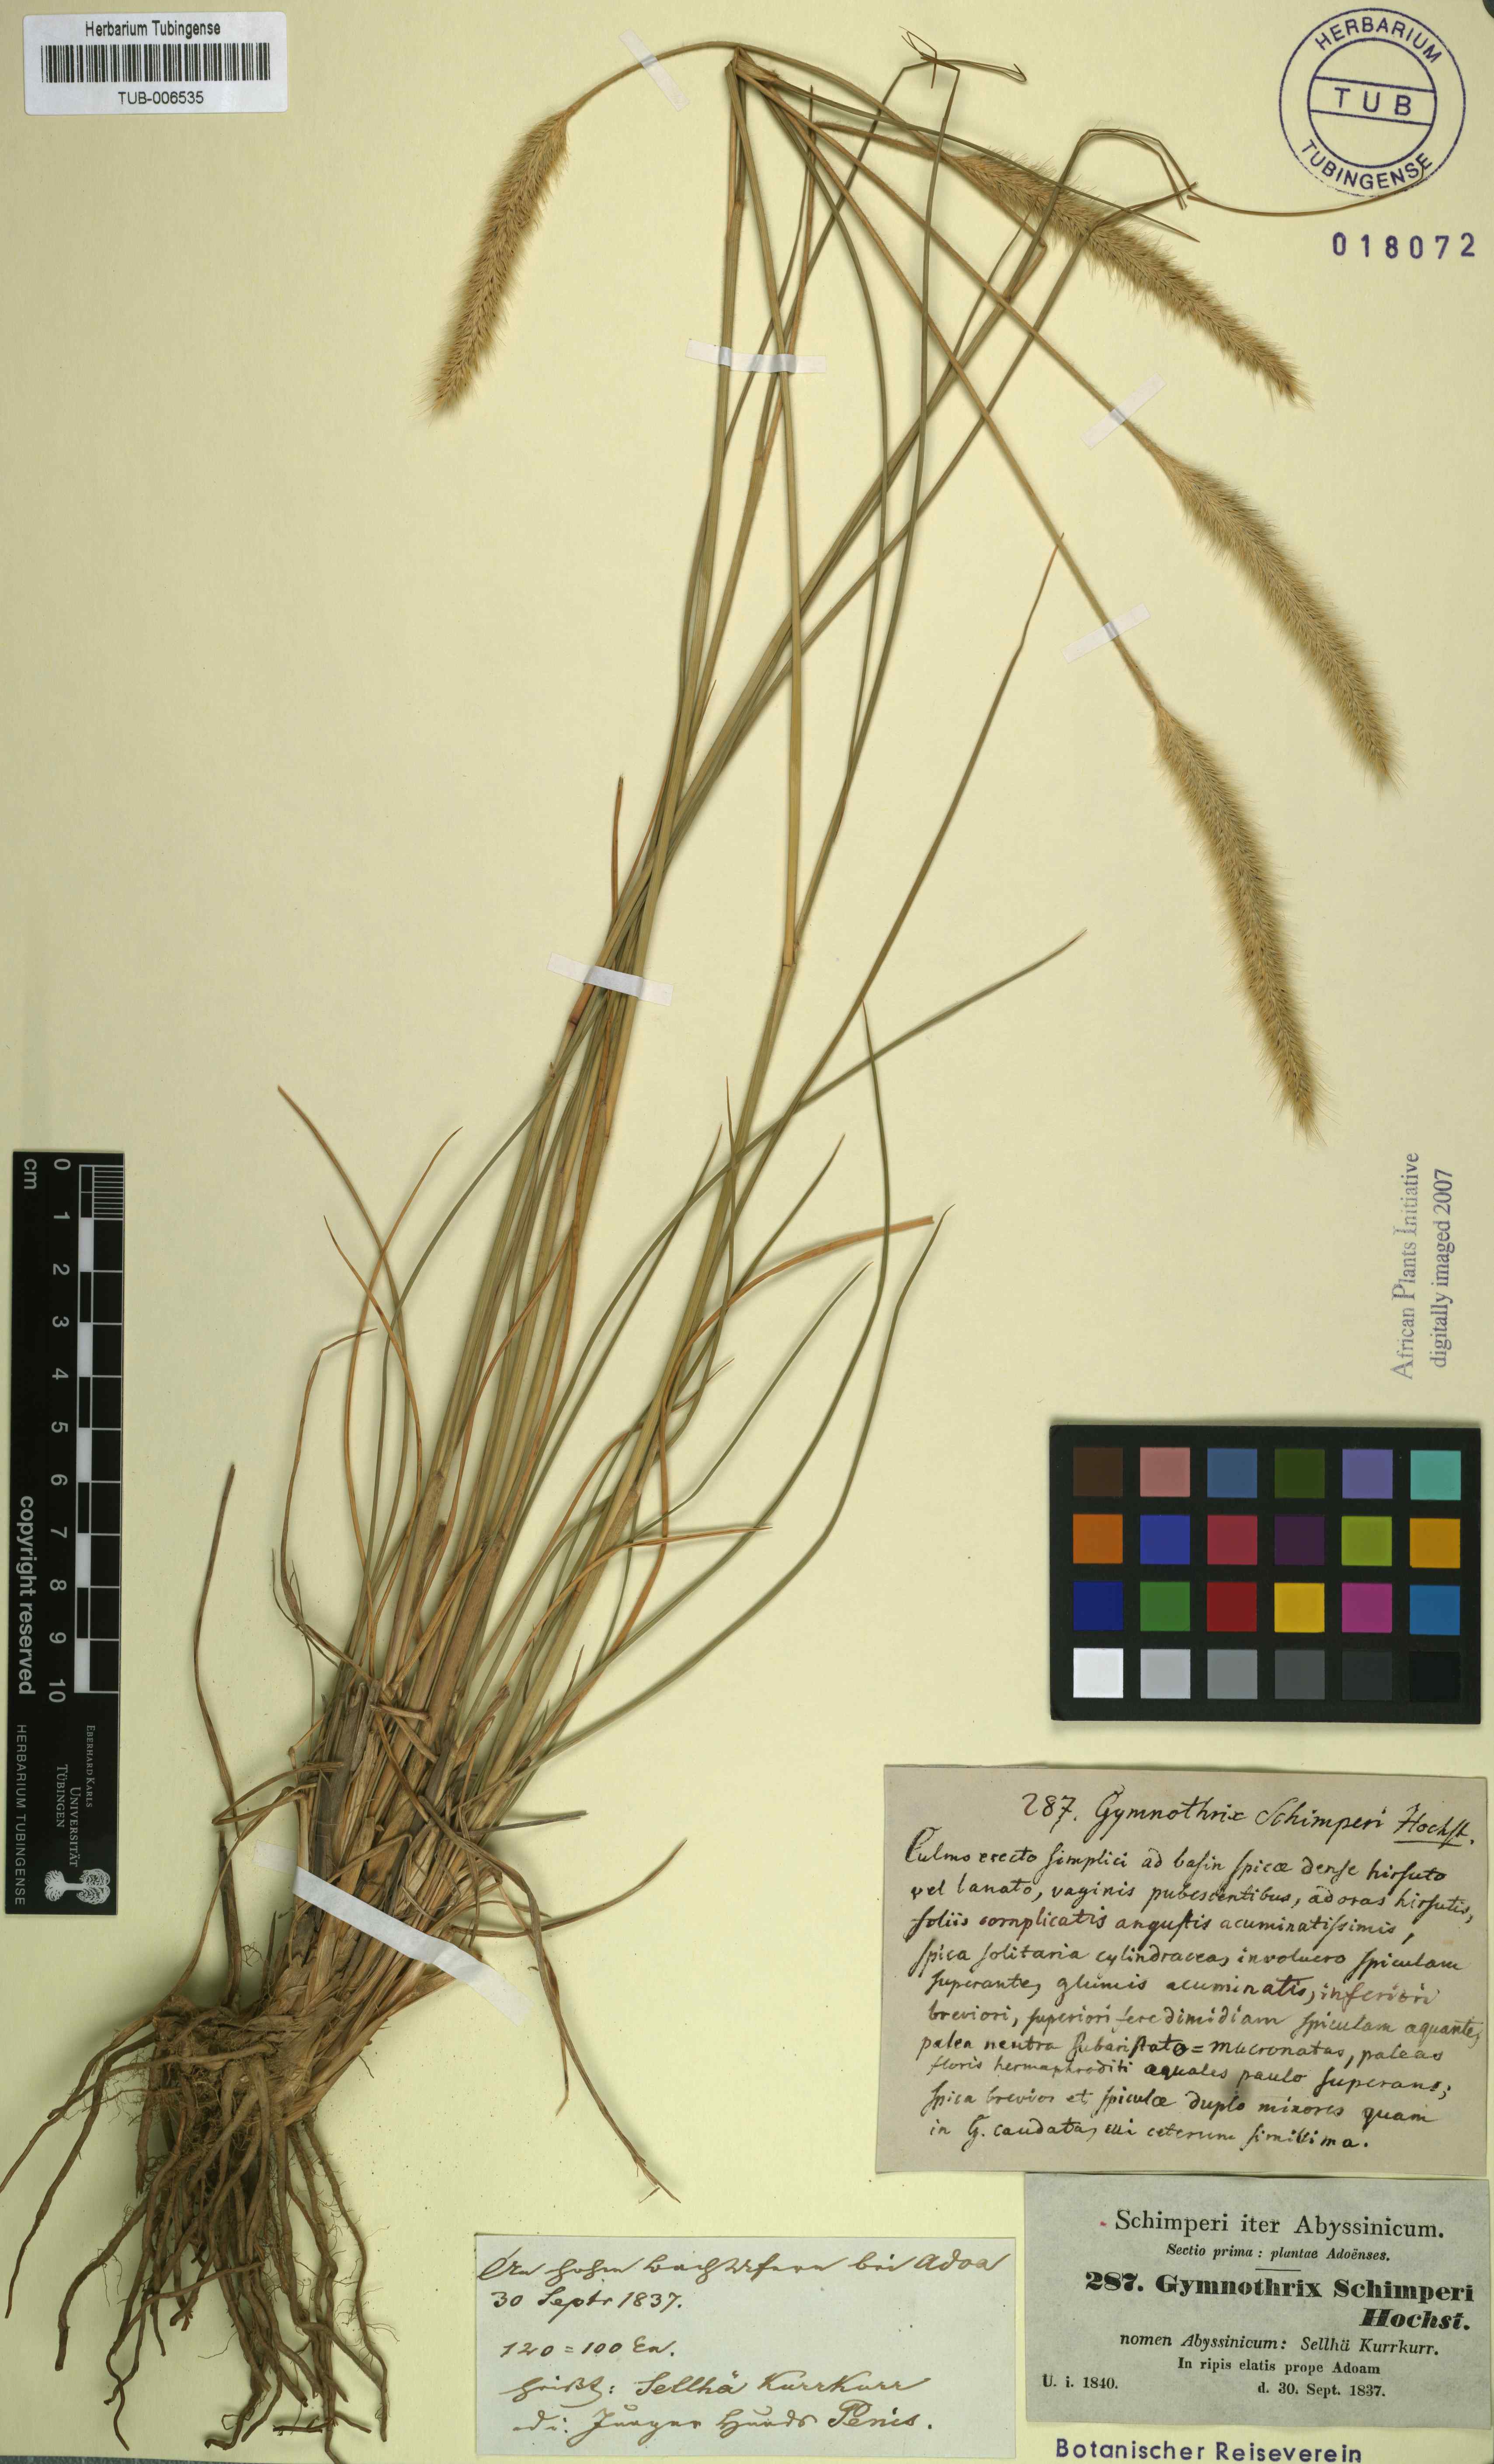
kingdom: Plantae
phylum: Tracheophyta
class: Liliopsida
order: Poales
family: Poaceae
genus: Cenchrus
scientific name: Cenchrus sphacelatus
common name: Bulgras
